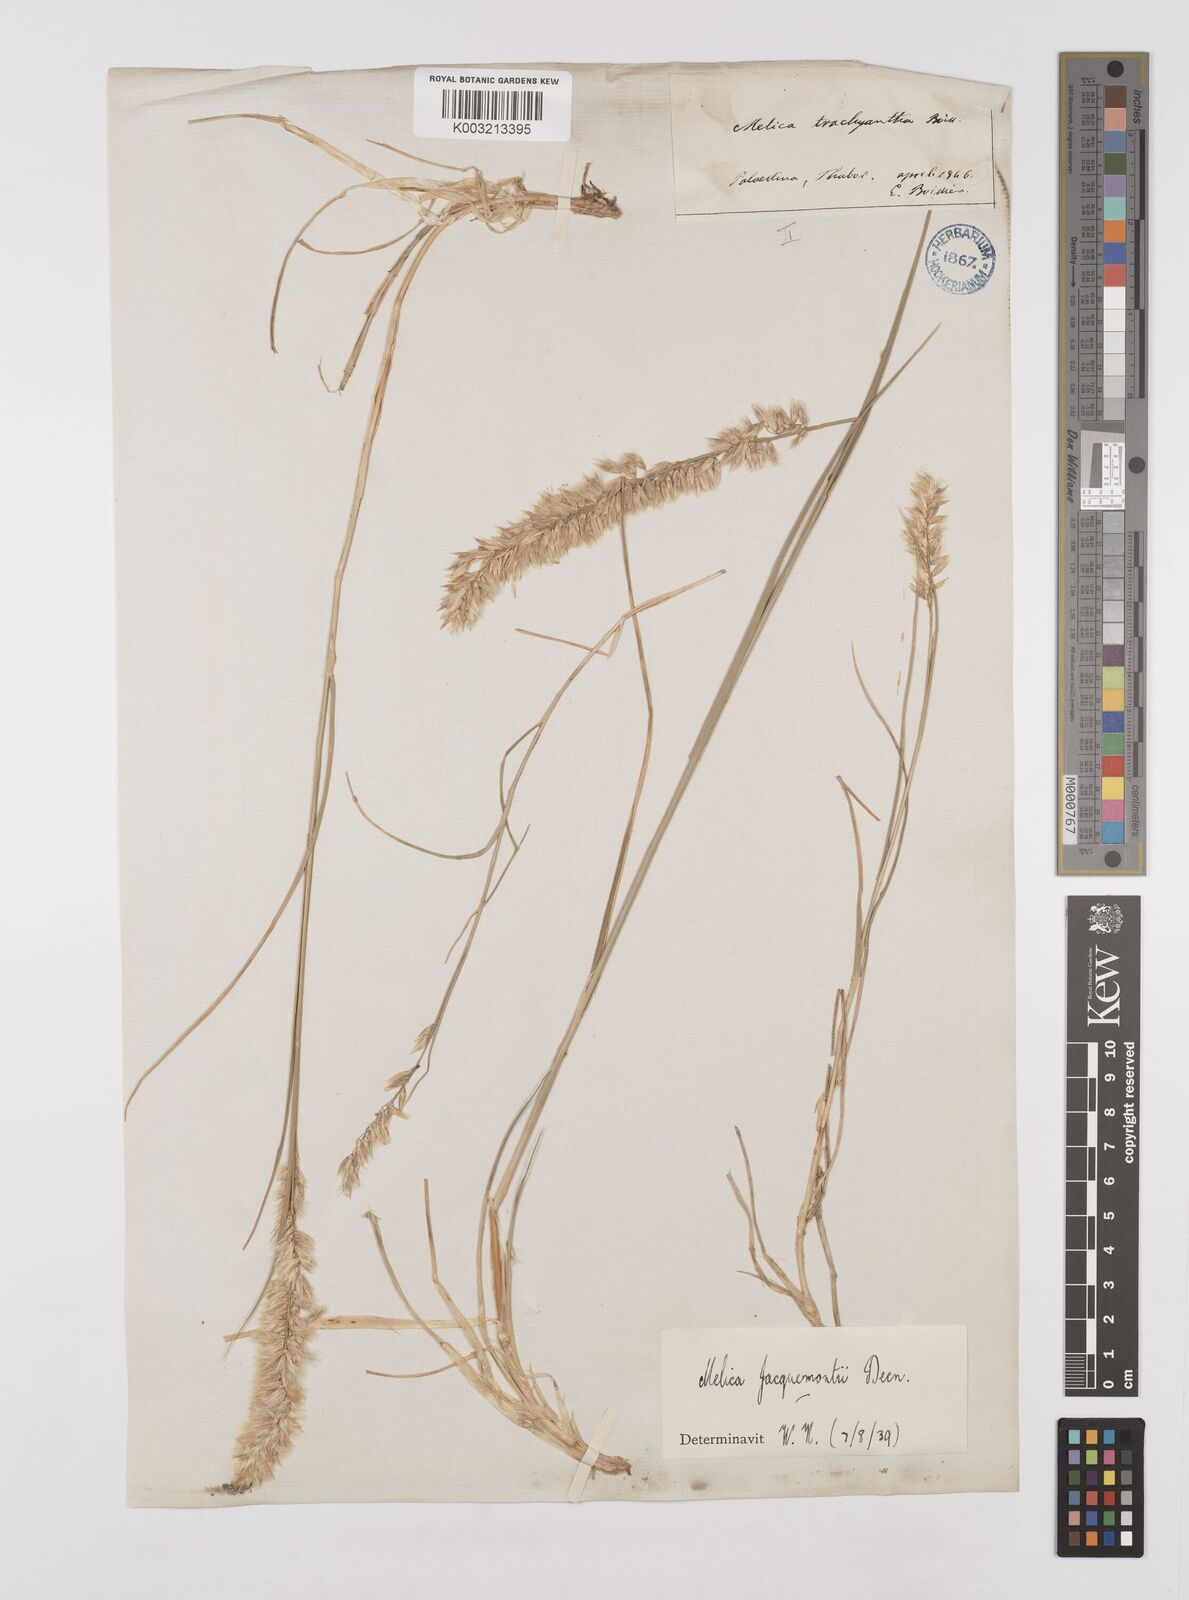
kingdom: Plantae
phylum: Tracheophyta
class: Liliopsida
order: Poales
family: Poaceae
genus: Melica
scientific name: Melica persica
